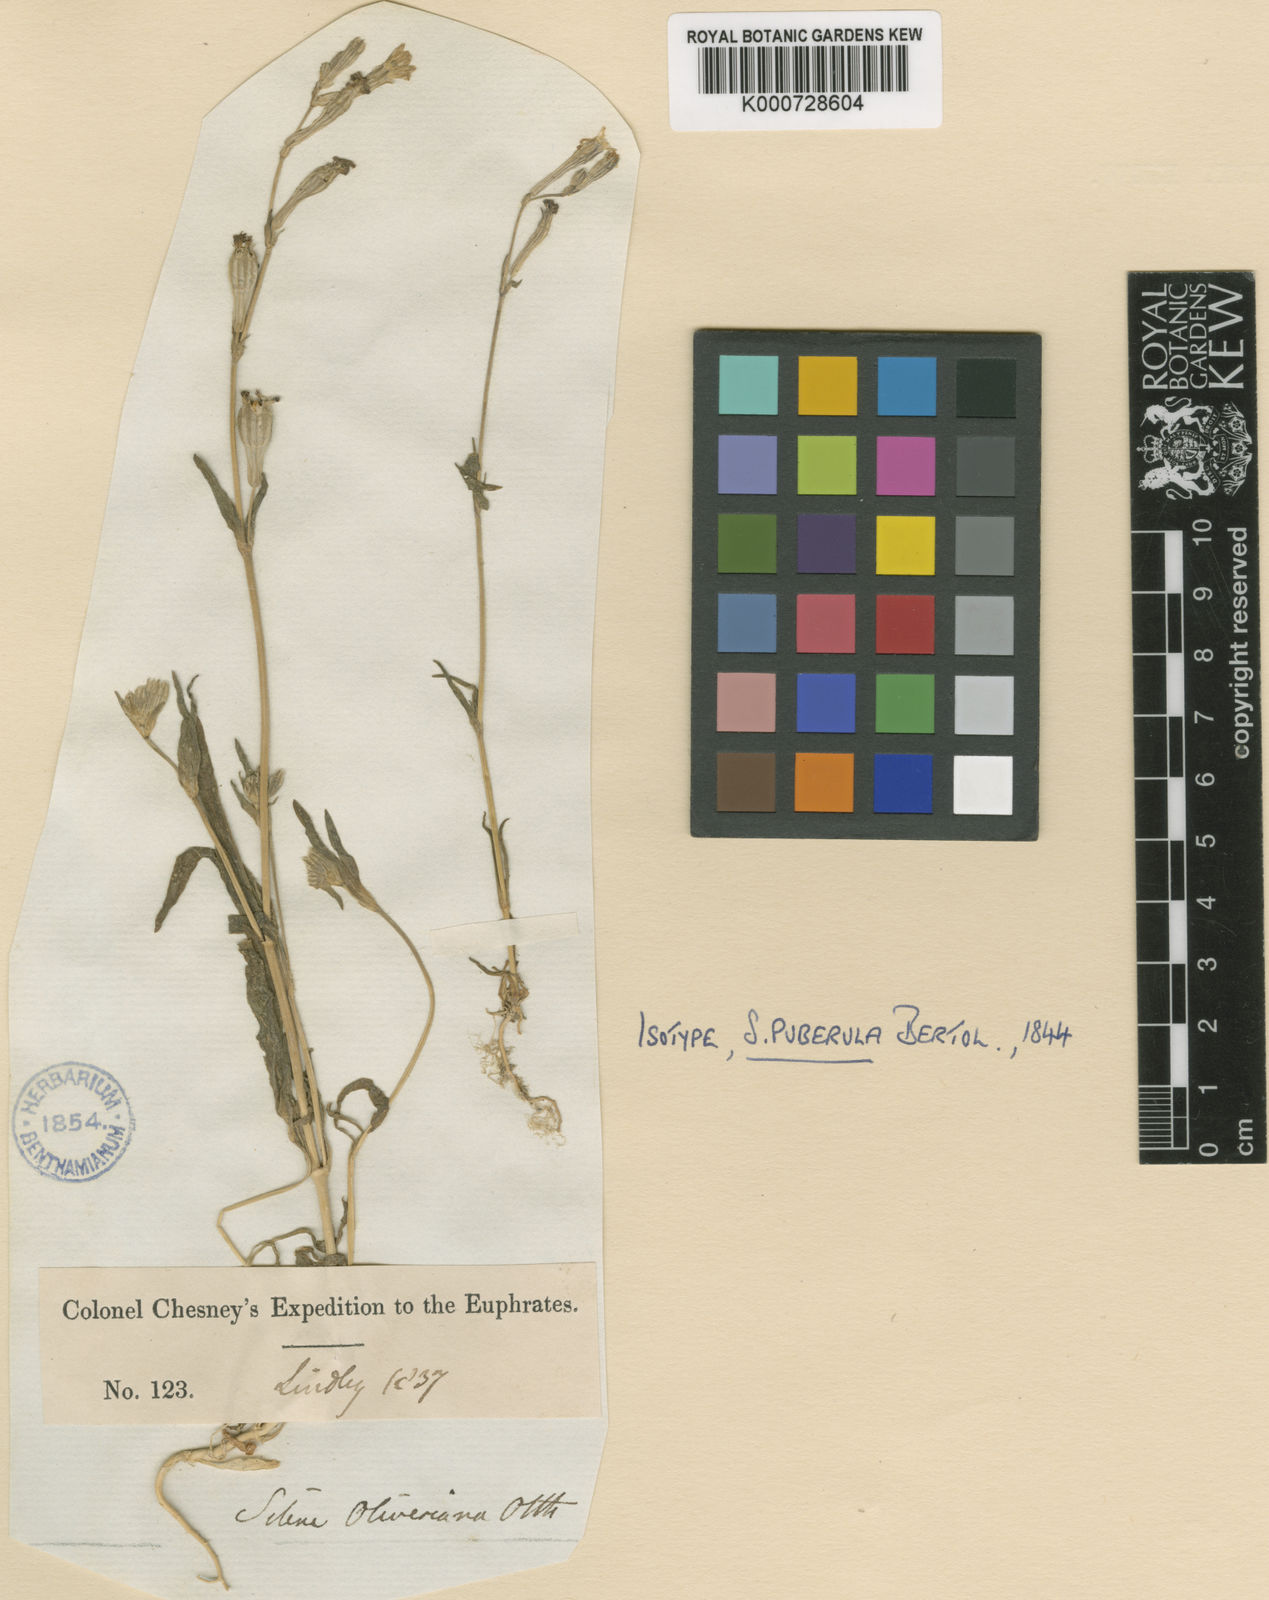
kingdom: Plantae
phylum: Tracheophyta
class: Magnoliopsida
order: Caryophyllales
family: Caryophyllaceae
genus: Silene
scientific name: Silene colorata
